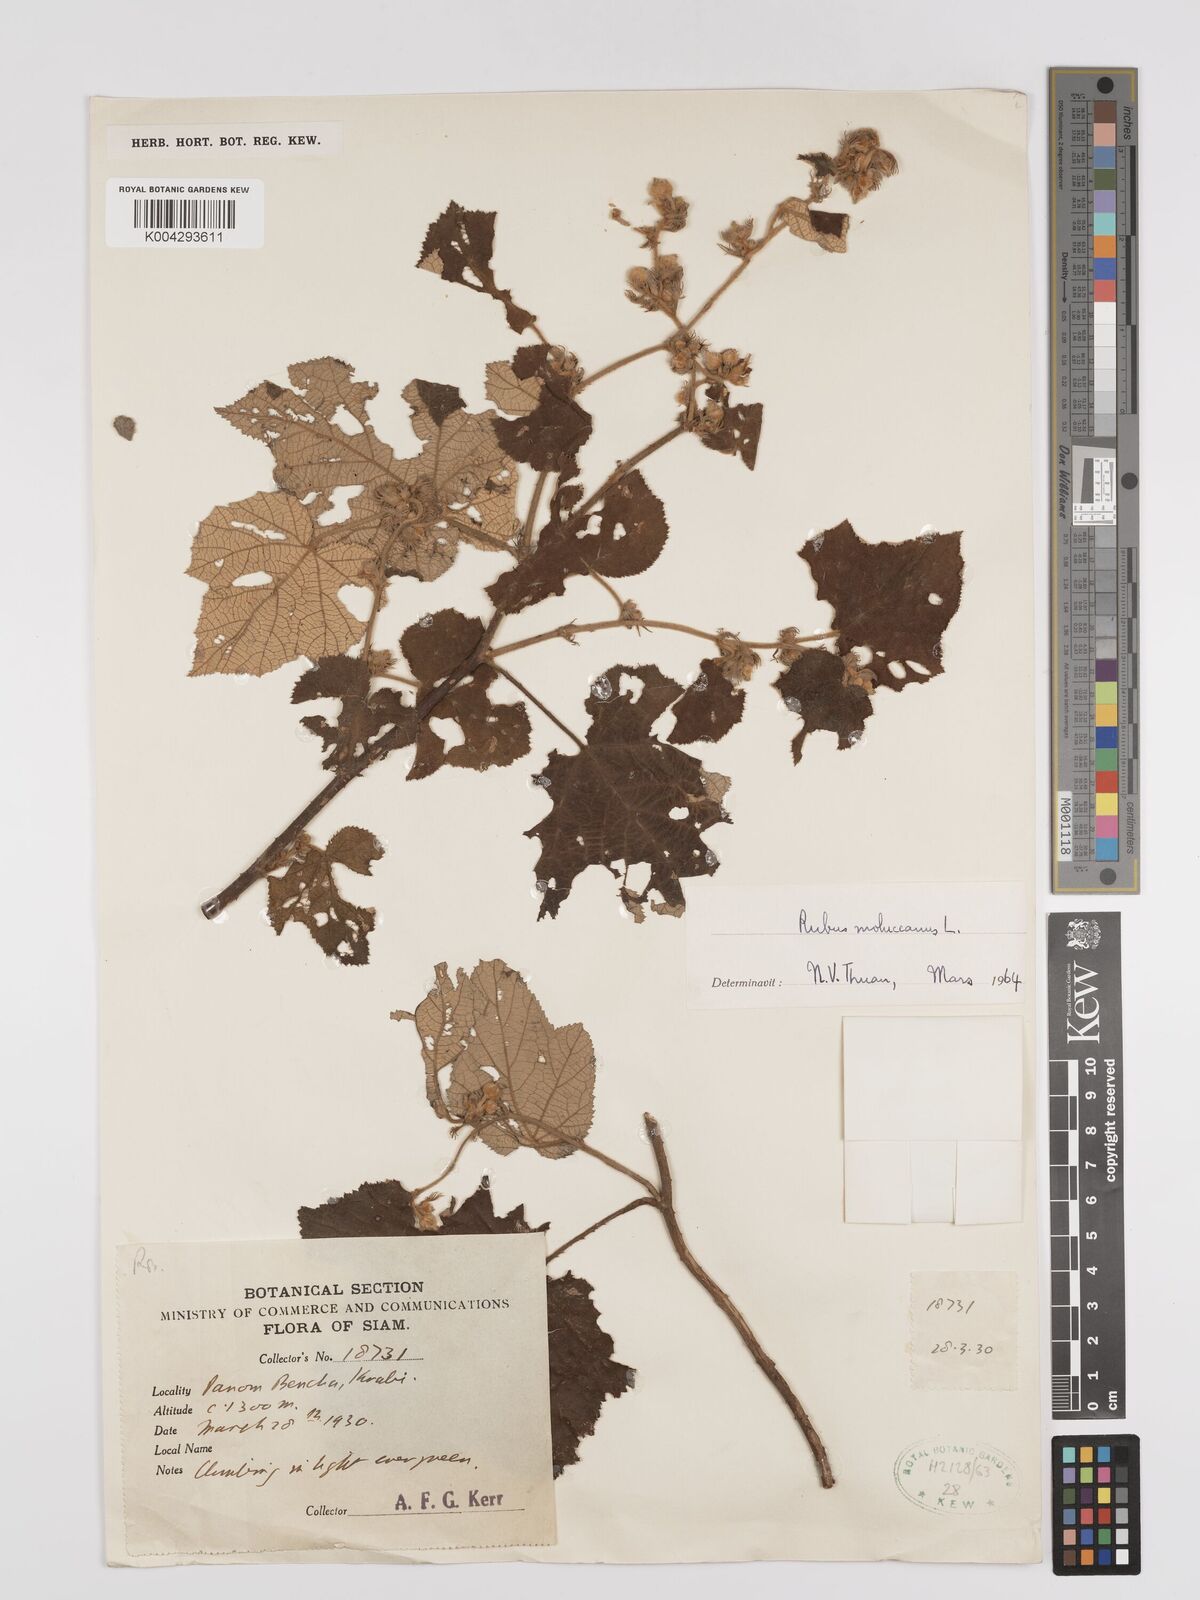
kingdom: Plantae
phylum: Tracheophyta
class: Magnoliopsida
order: Rosales
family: Rosaceae
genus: Rubus
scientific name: Rubus moluccanus
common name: Wild raspberry
